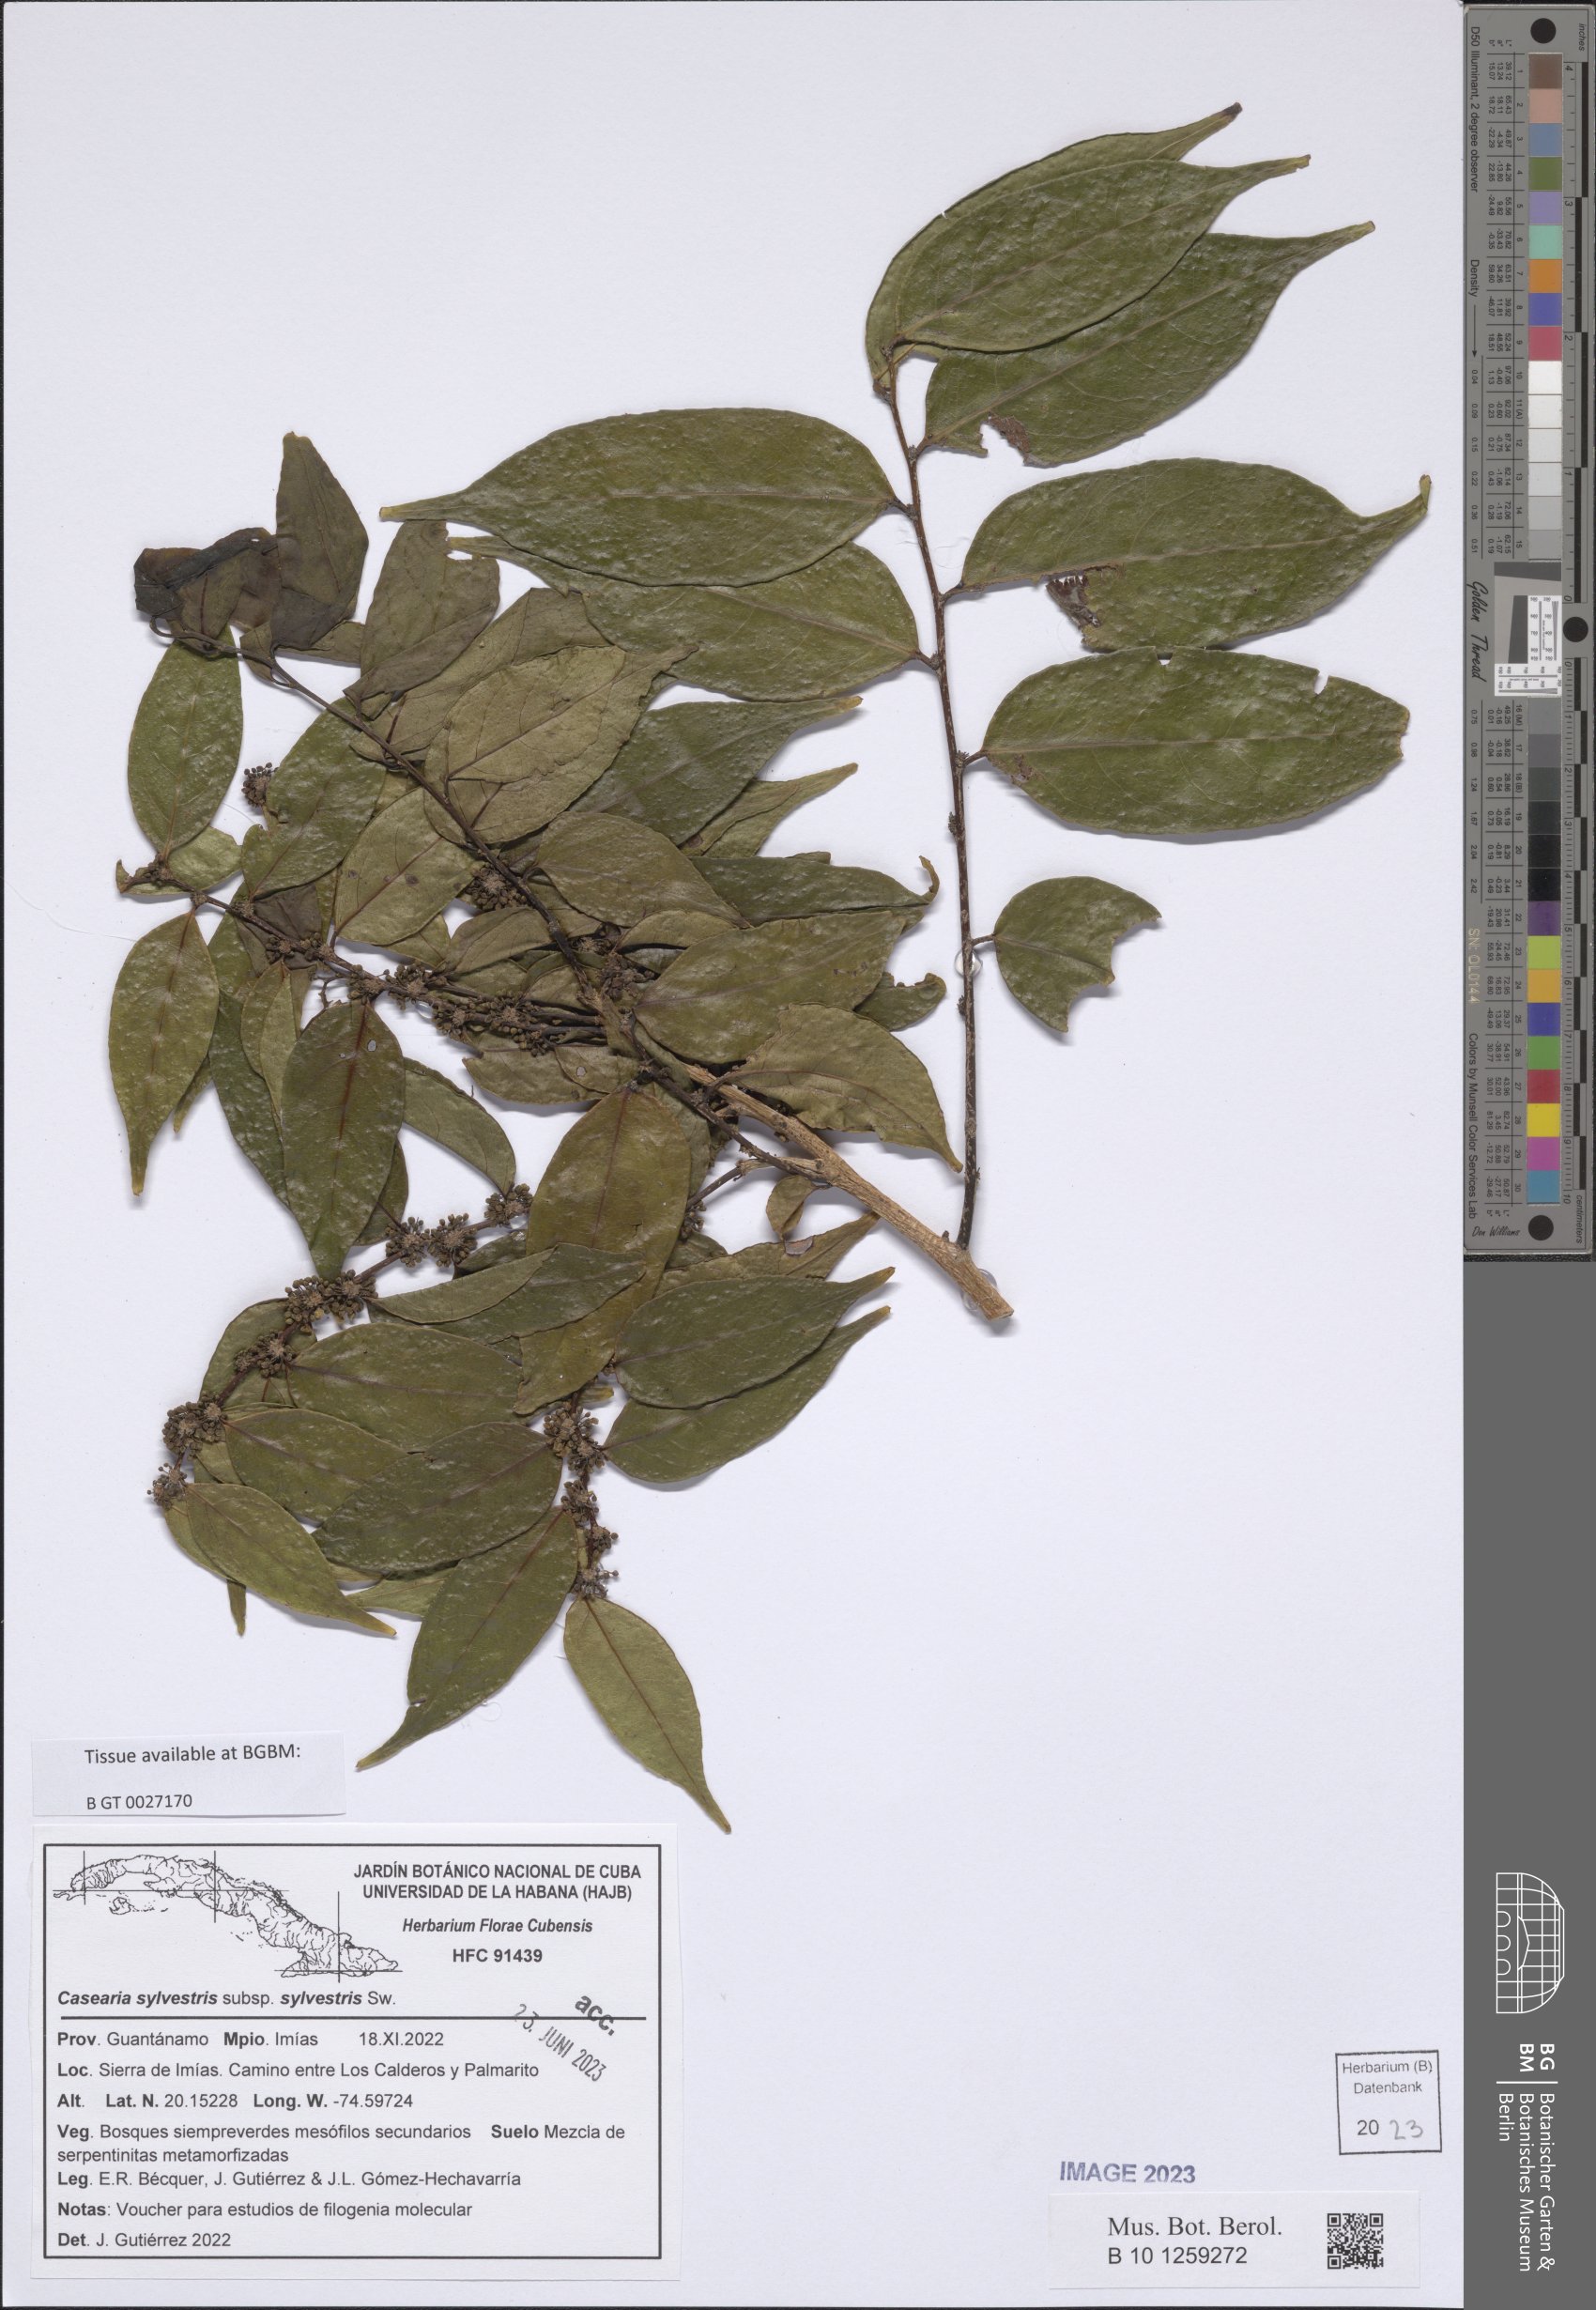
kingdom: Plantae
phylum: Tracheophyta
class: Magnoliopsida
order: Malpighiales
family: Salicaceae
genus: Casearia
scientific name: Casearia sylvestris
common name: Wild sage
